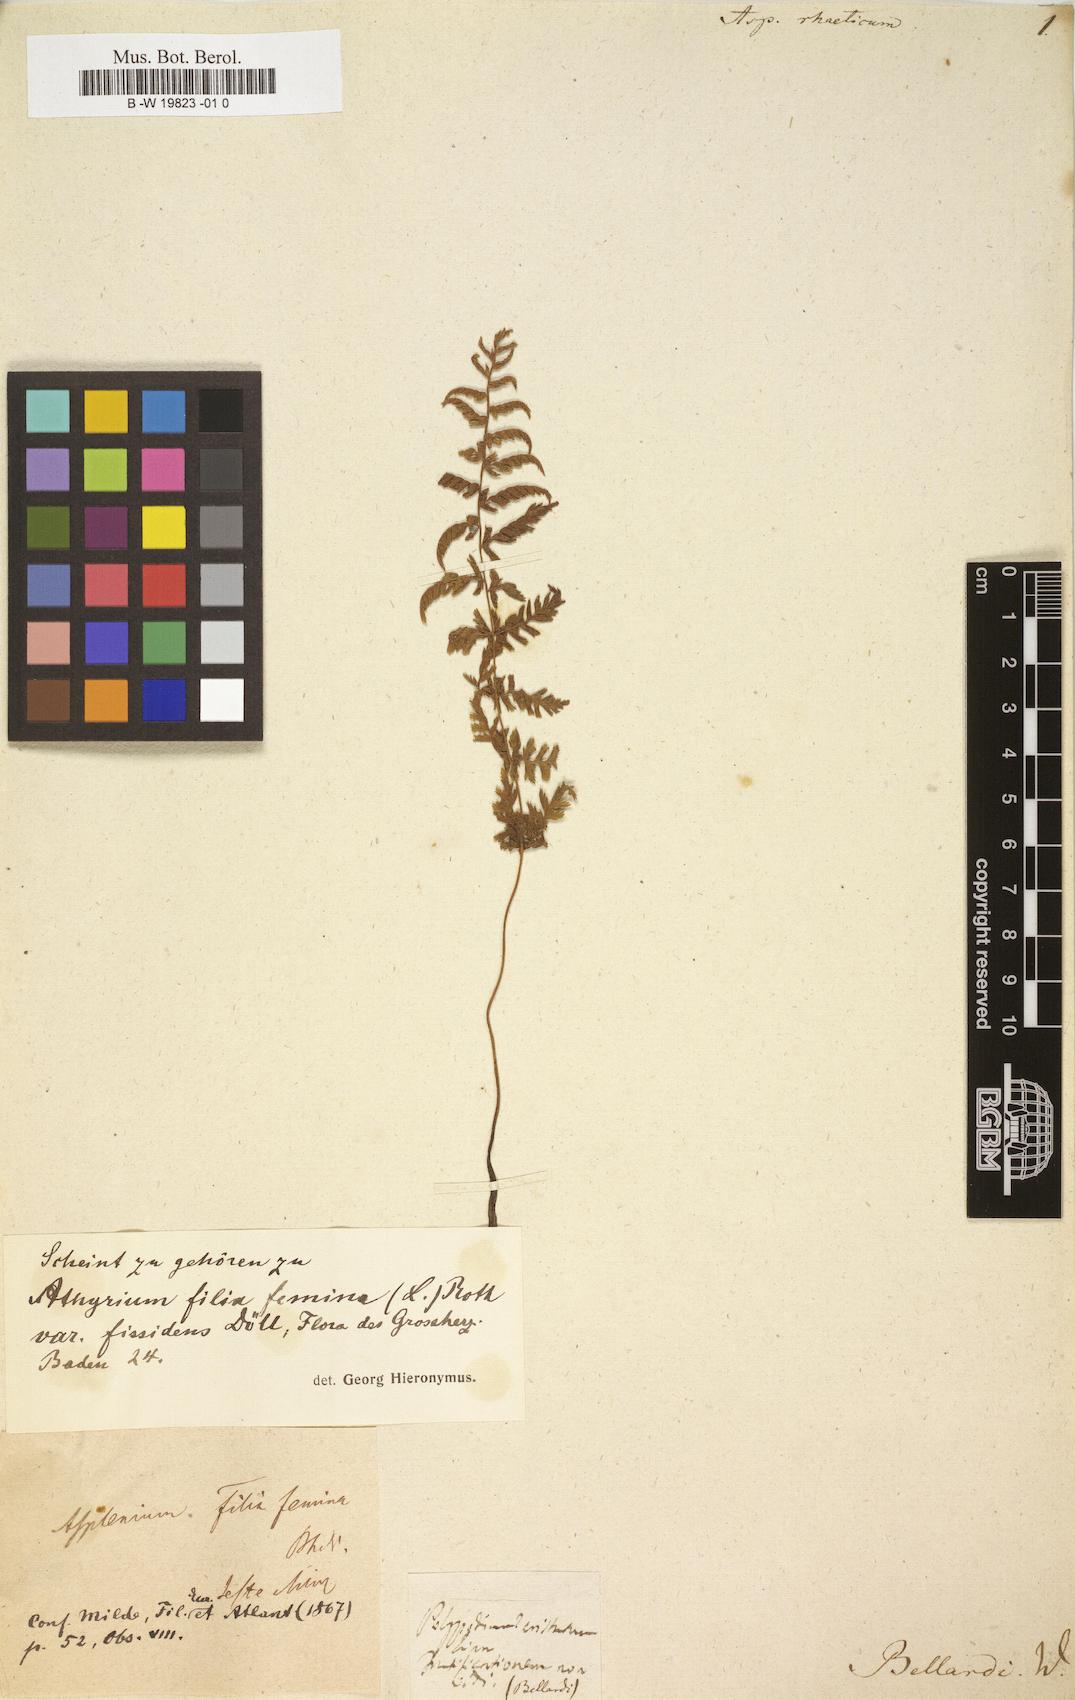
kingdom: Plantae
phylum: Tracheophyta
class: Polypodiopsida
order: Polypodiales
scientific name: Polypodiales
